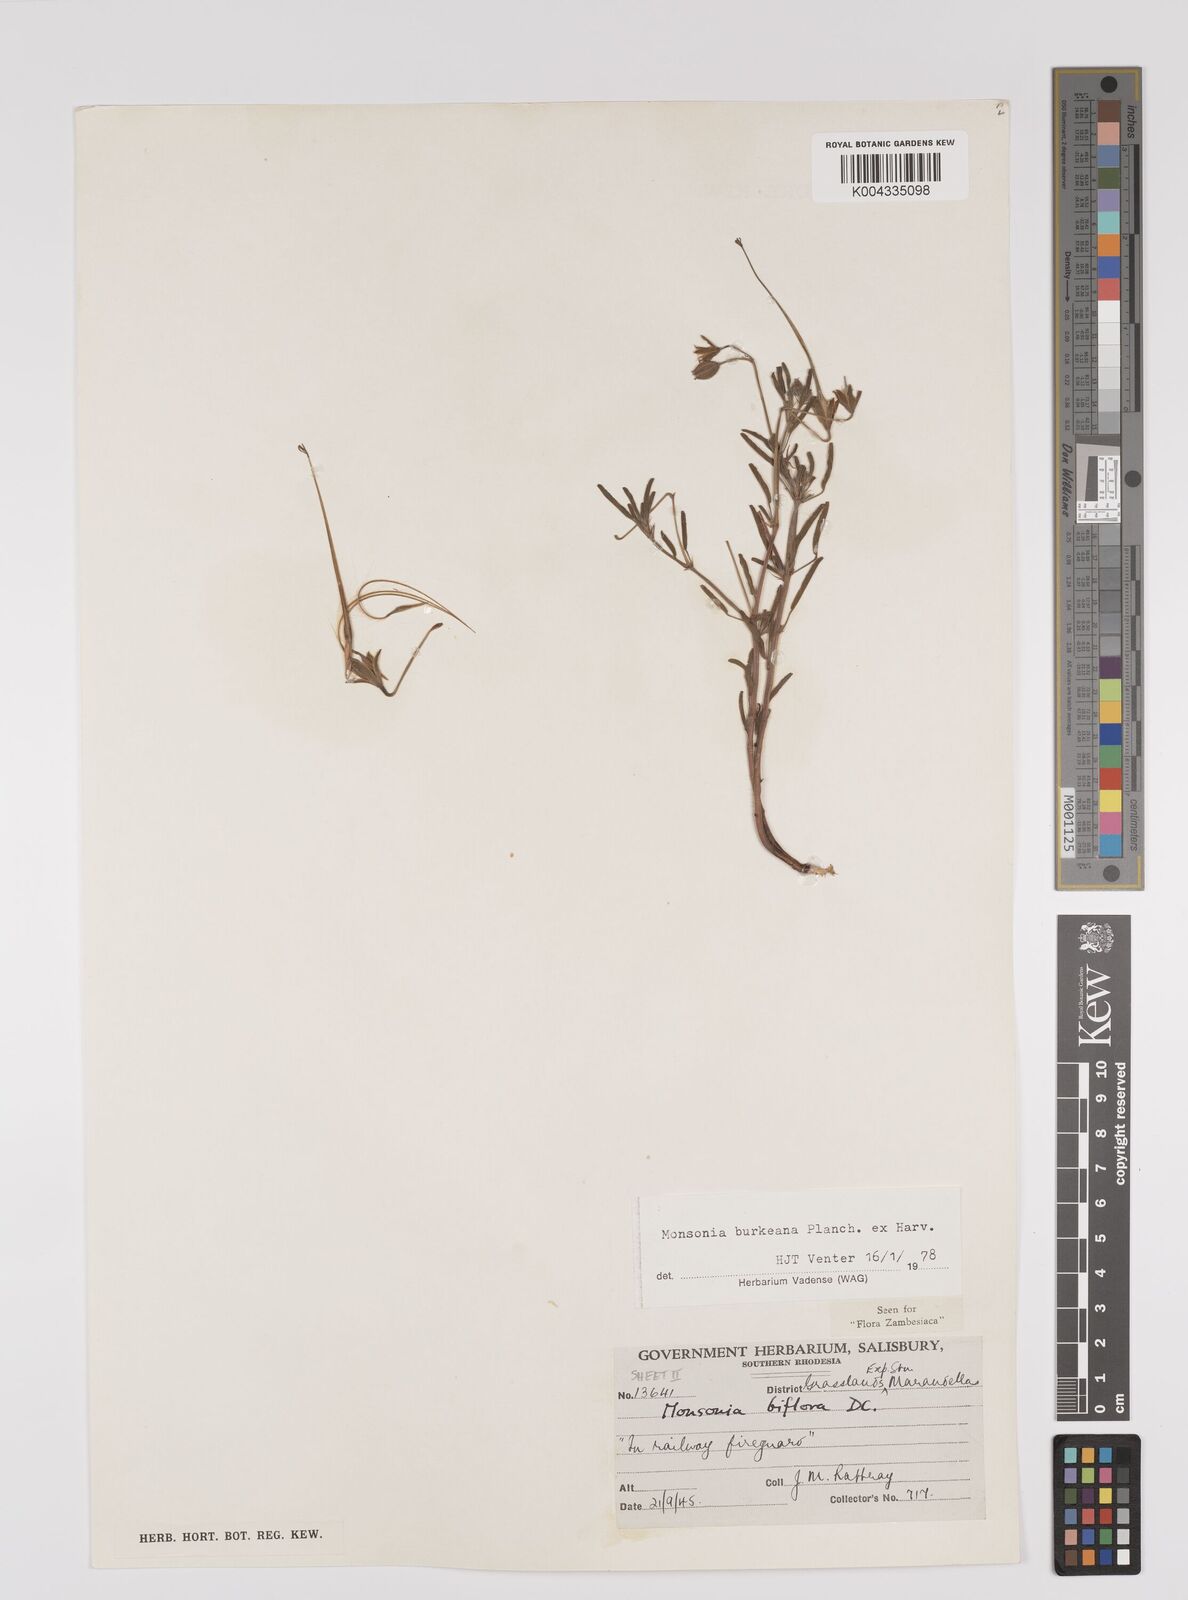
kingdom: Plantae
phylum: Tracheophyta
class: Magnoliopsida
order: Geraniales
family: Geraniaceae
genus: Monsonia
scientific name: Monsonia biflora
